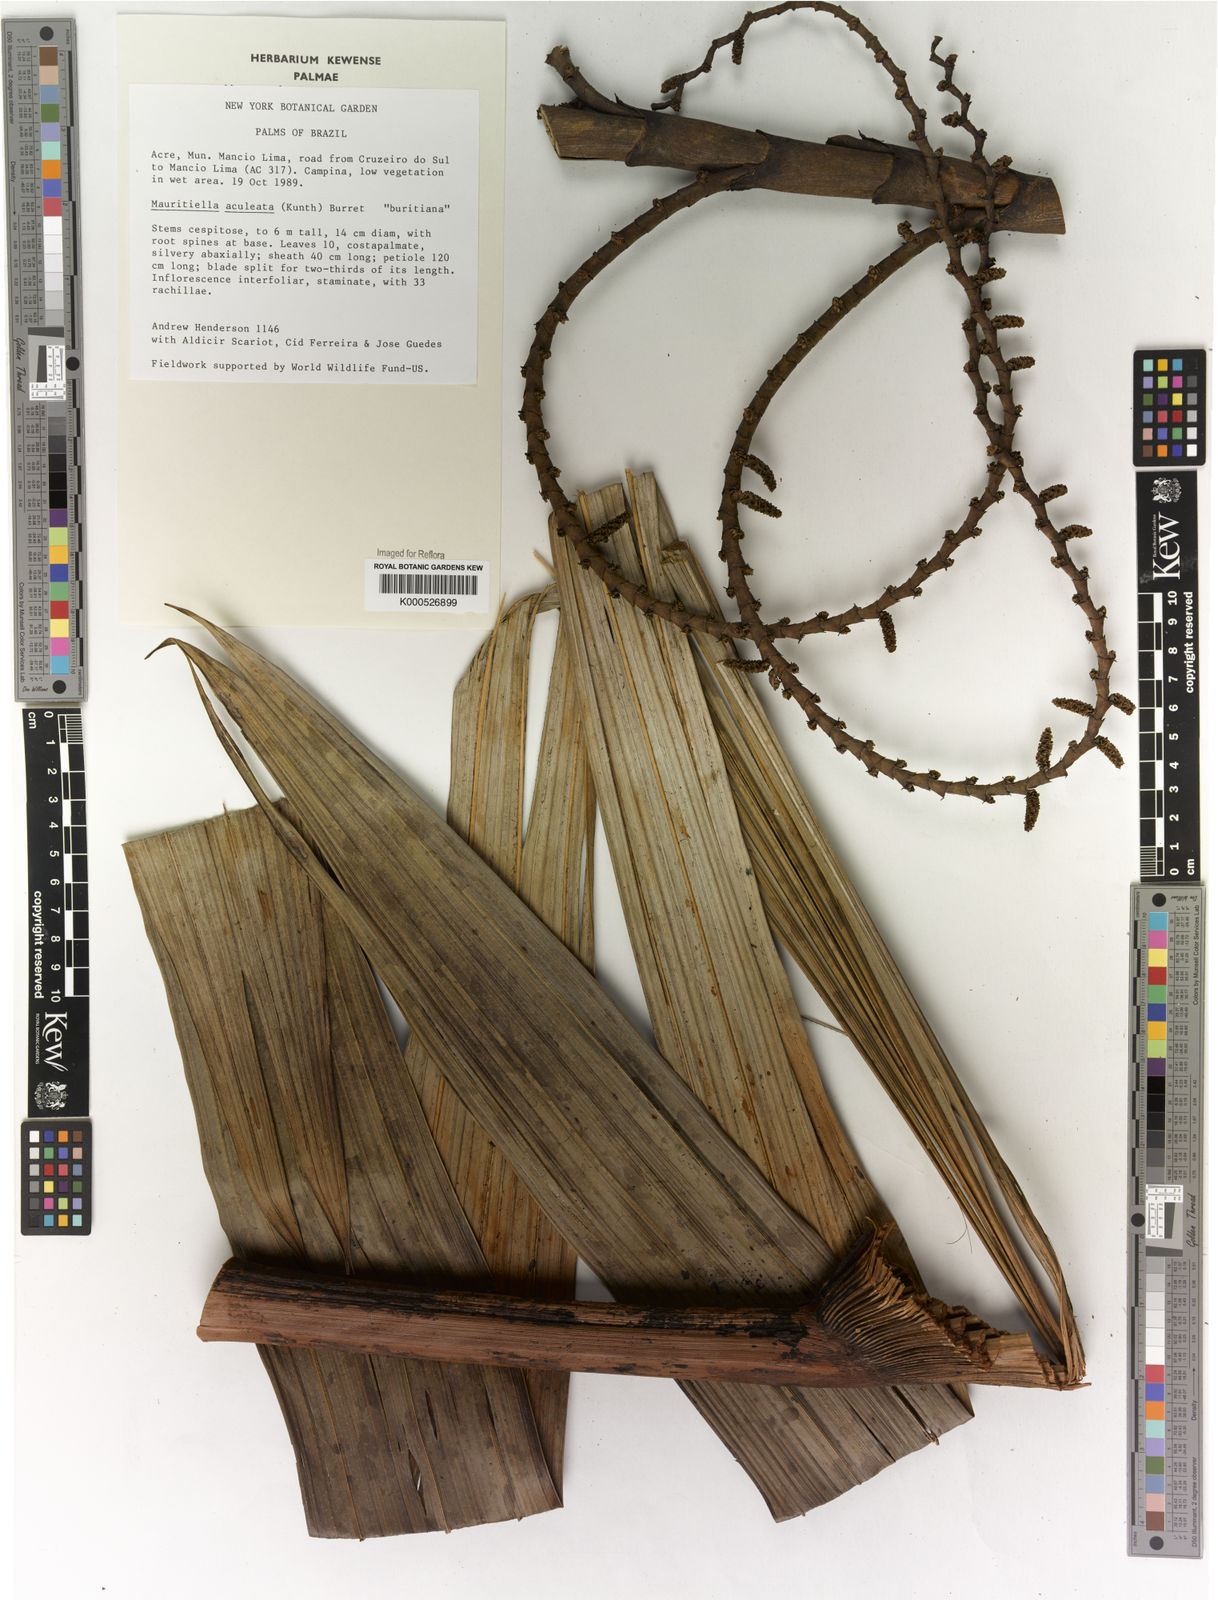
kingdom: Plantae
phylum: Tracheophyta
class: Liliopsida
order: Arecales
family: Arecaceae
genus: Mauritiella
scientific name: Mauritiella aculeata
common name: Buritirana
